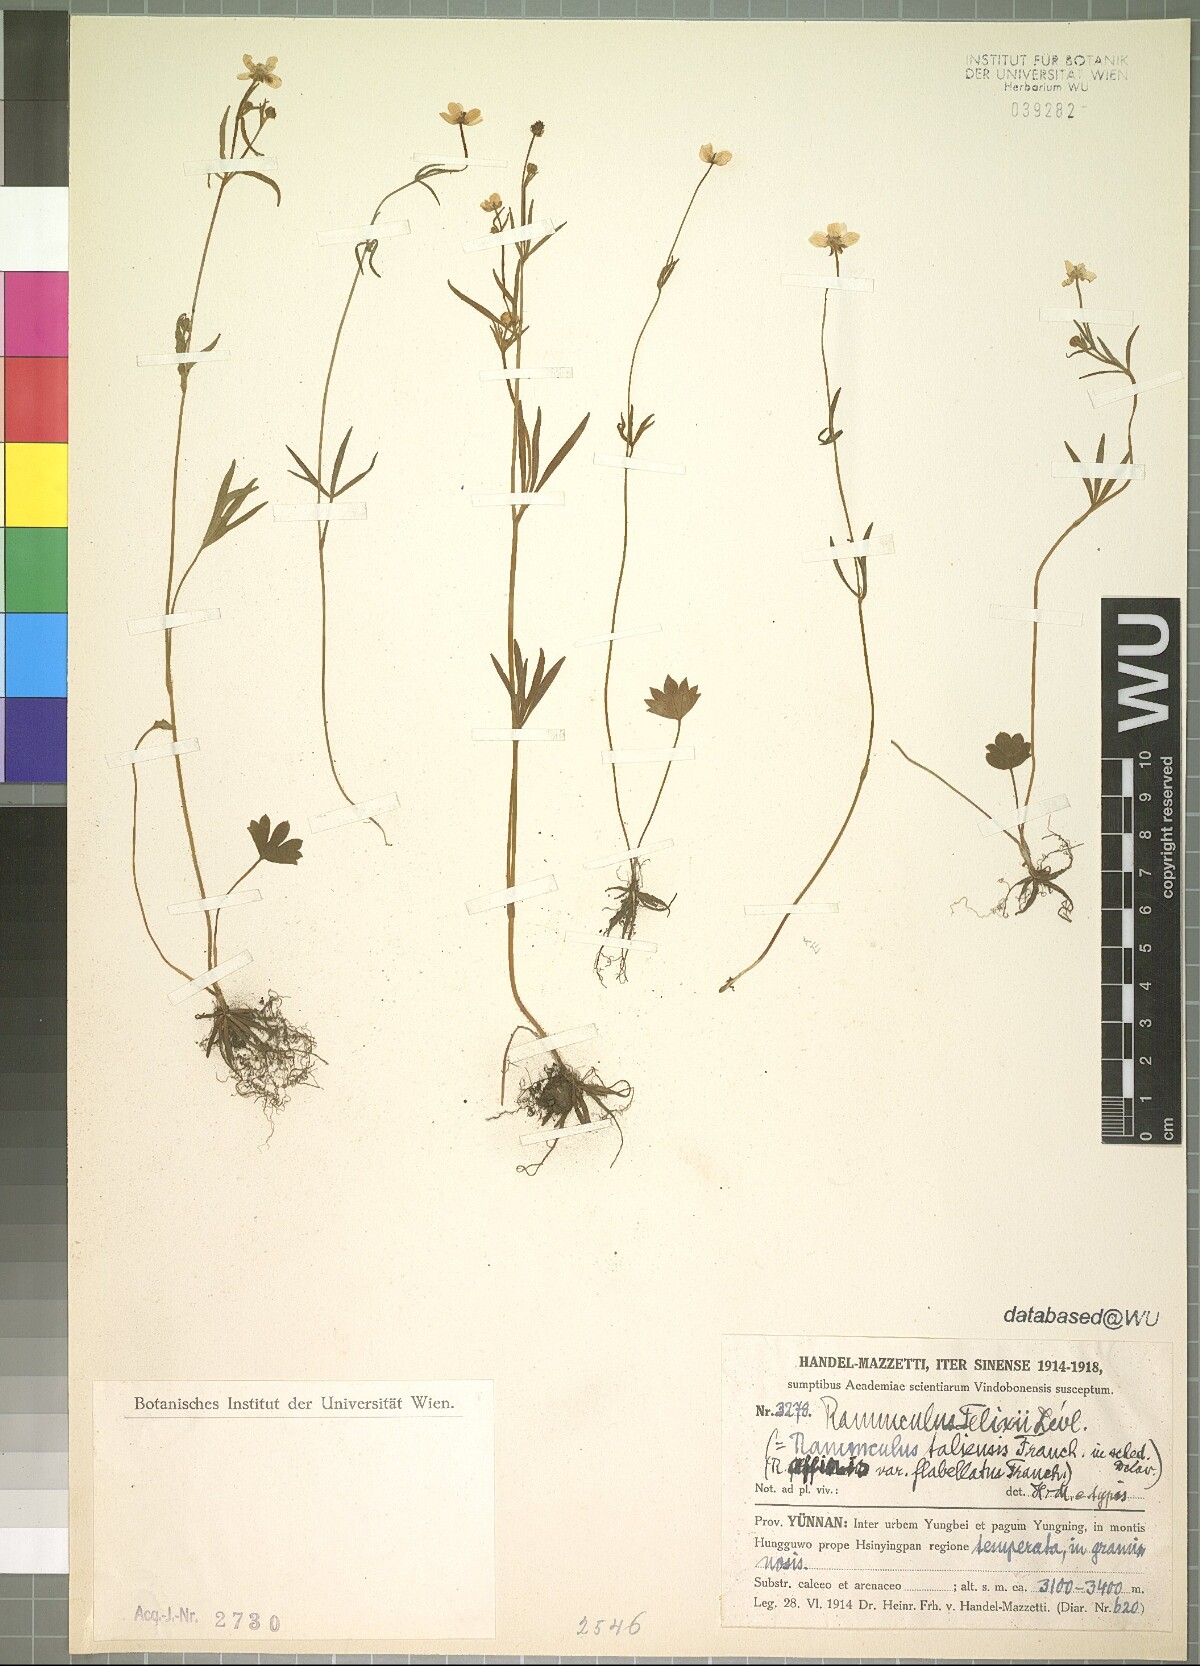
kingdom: Plantae
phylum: Tracheophyta
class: Magnoliopsida
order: Ranunculales
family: Ranunculaceae
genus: Ranunculus
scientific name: Ranunculus felixii
